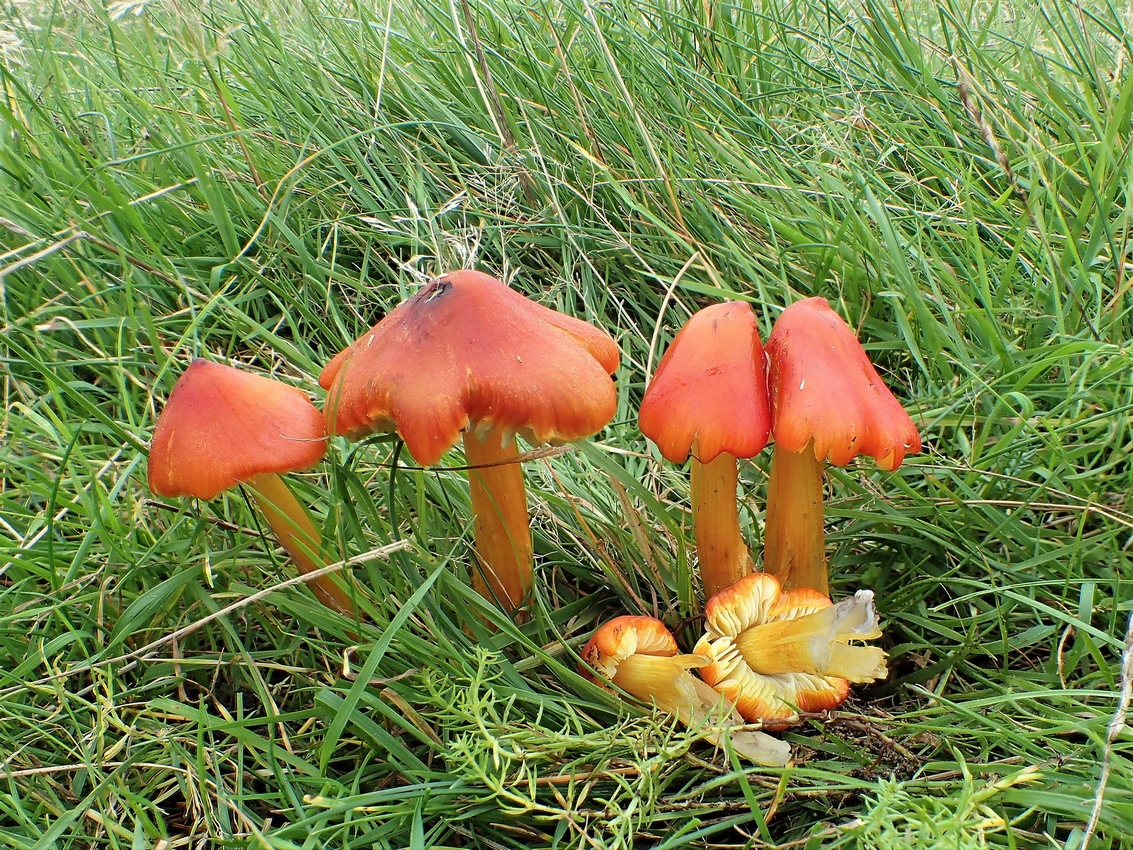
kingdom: Fungi
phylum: Basidiomycota
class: Agaricomycetes
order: Agaricales
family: Hygrophoraceae
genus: Hygrocybe
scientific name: Hygrocybe conica
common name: kegle-vokshat
